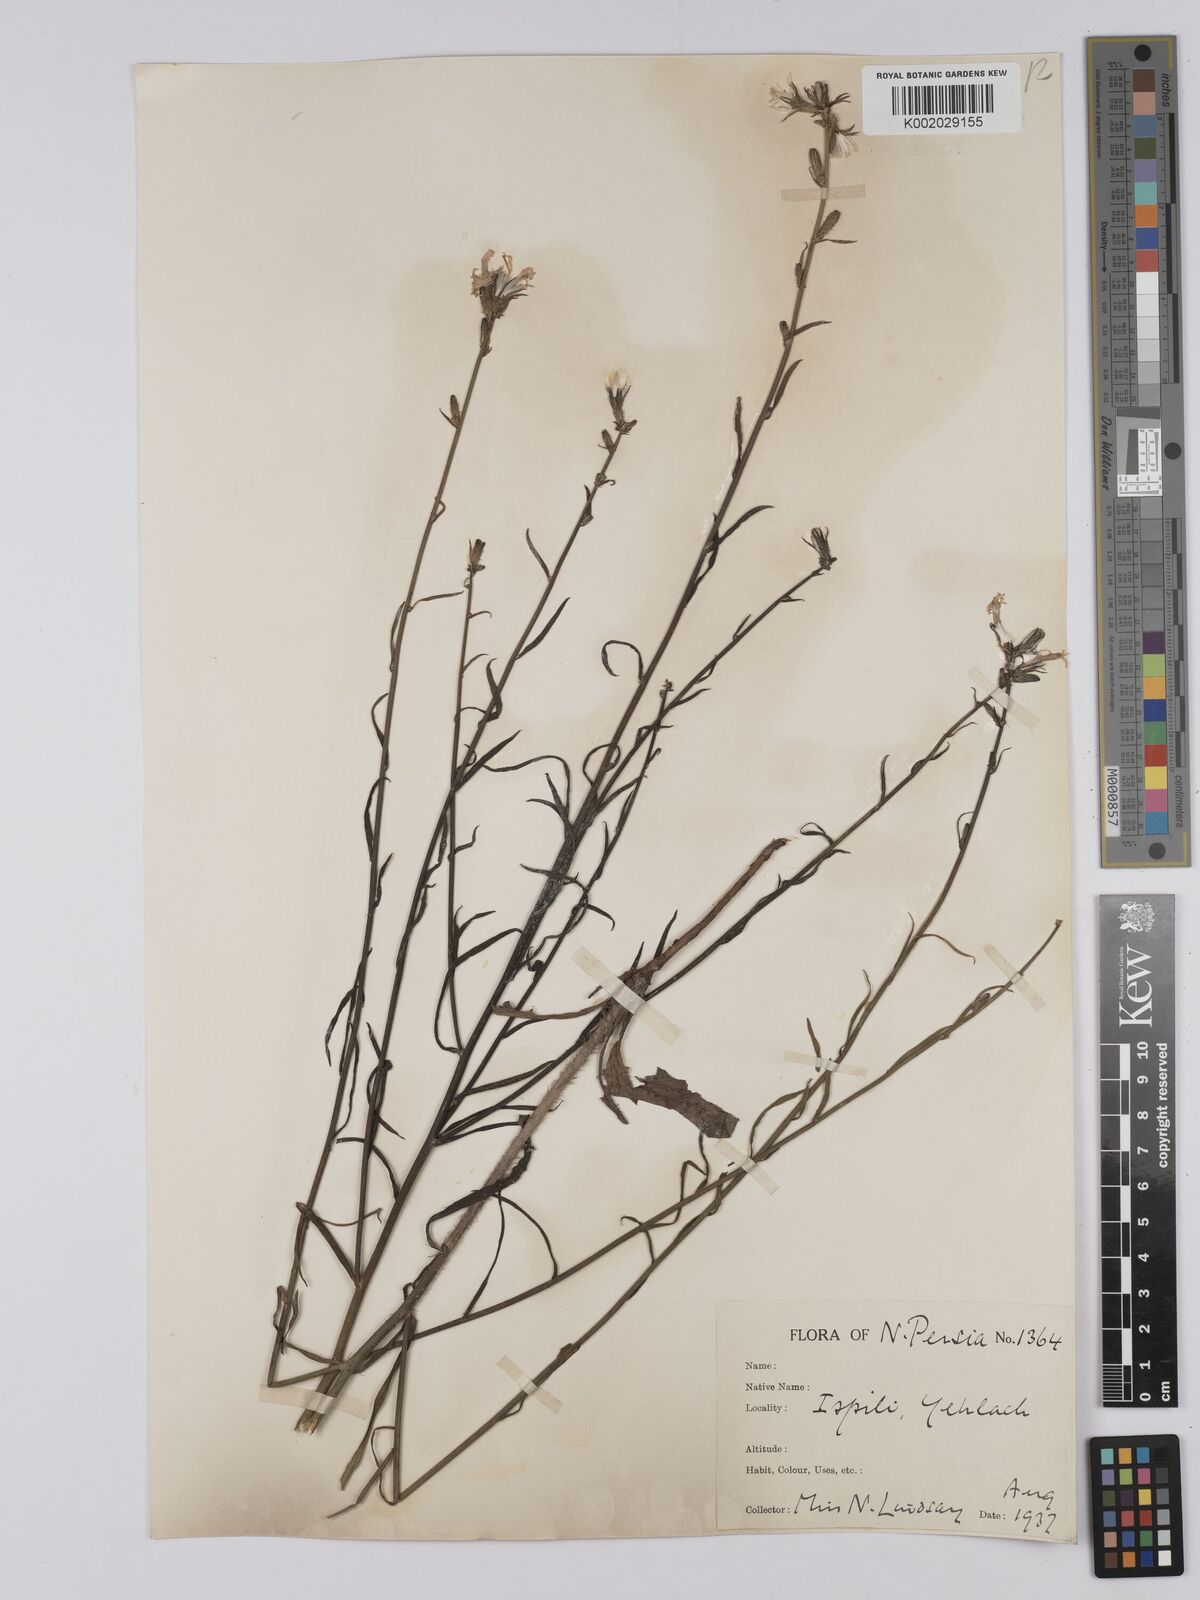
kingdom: Plantae
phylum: Tracheophyta
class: Magnoliopsida
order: Asterales
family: Asteraceae
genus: Chondrilla
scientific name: Chondrilla juncea
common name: Skeleton weed
